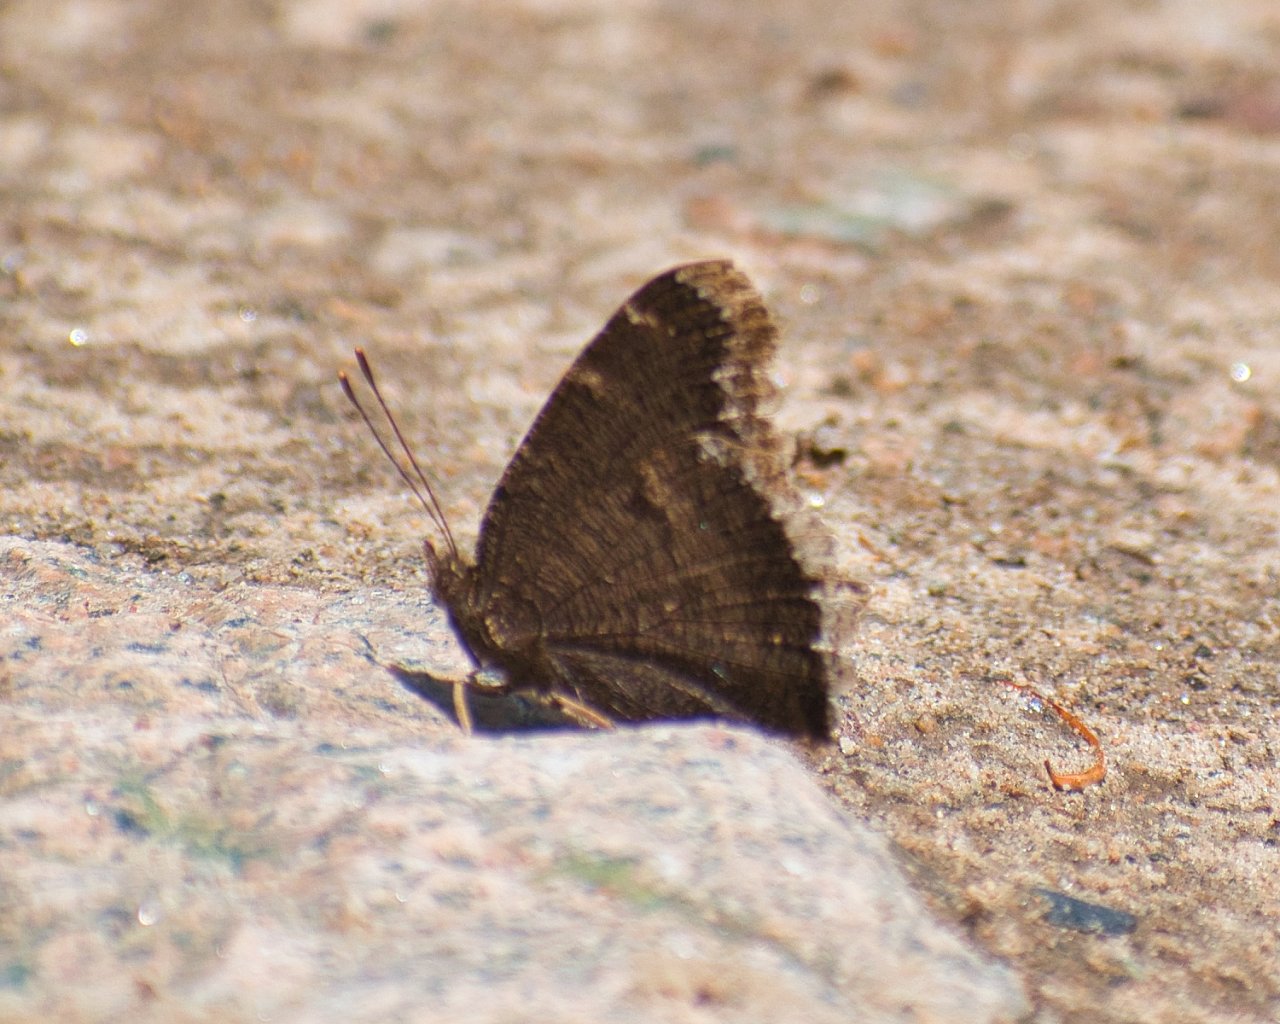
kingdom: Animalia
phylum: Arthropoda
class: Insecta
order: Lepidoptera
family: Nymphalidae
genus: Nymphalis
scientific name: Nymphalis antiopa
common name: Mourning Cloak
